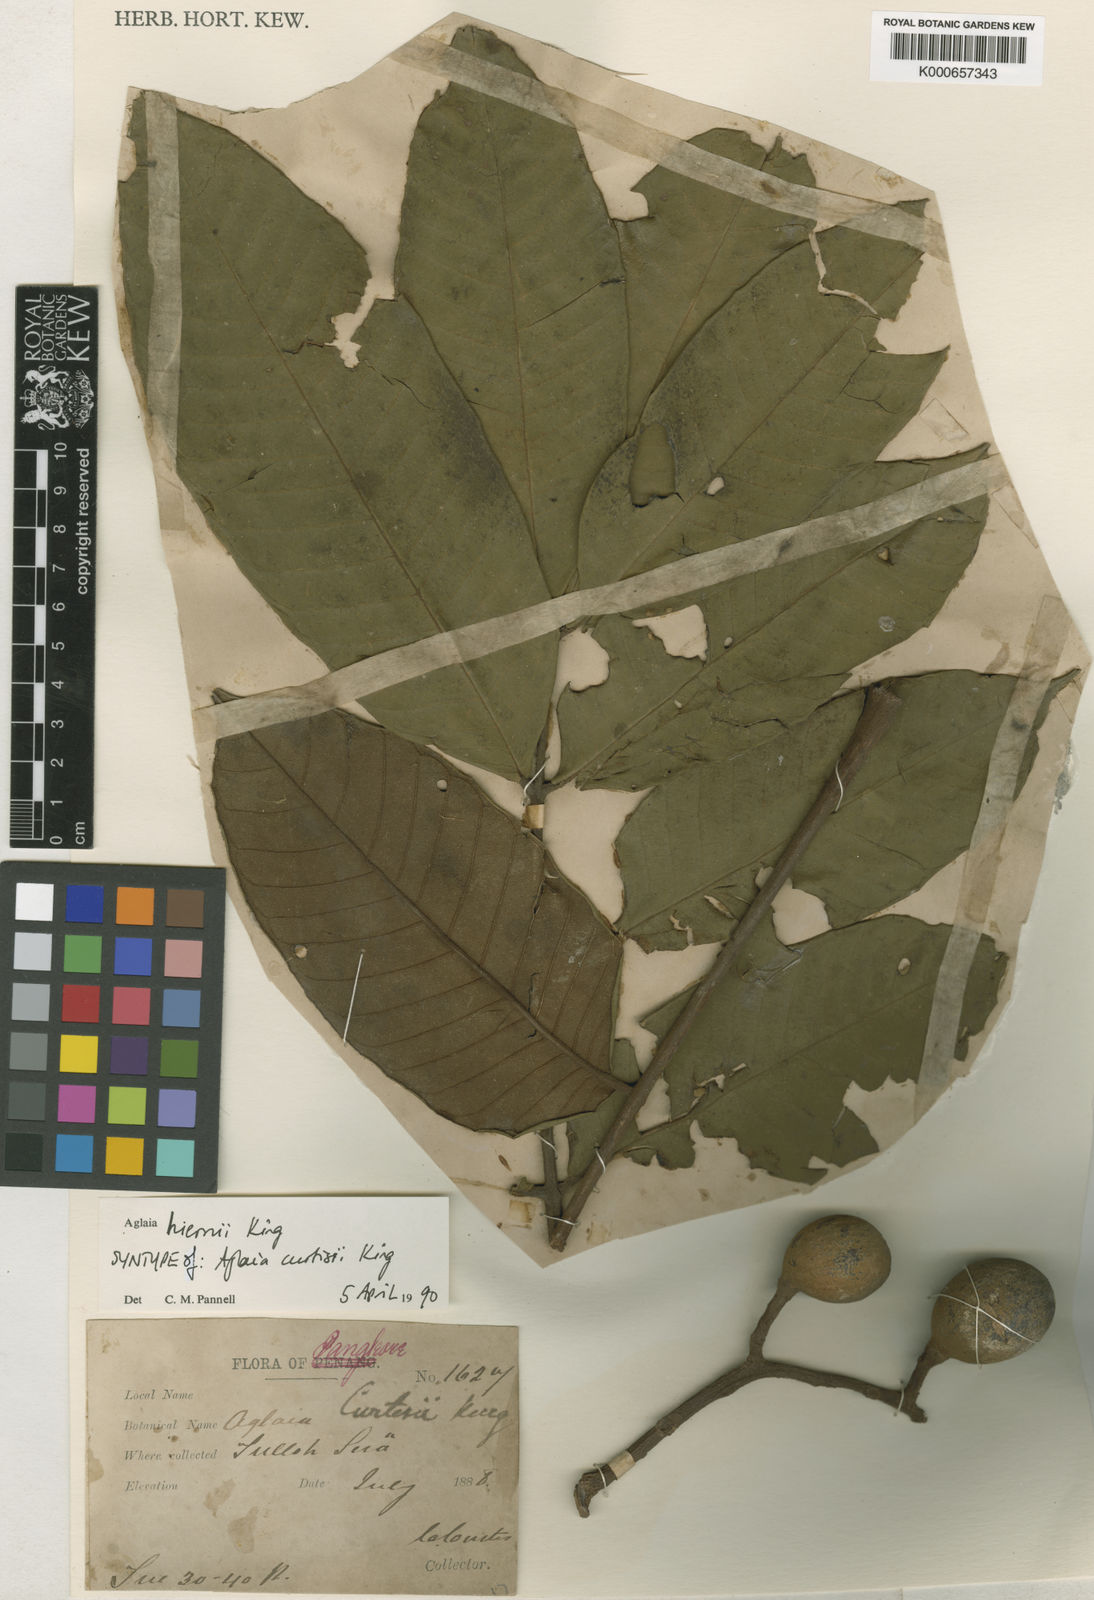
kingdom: Plantae
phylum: Tracheophyta
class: Magnoliopsida
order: Sapindales
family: Meliaceae
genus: Aglaia
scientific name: Aglaia hiernii
